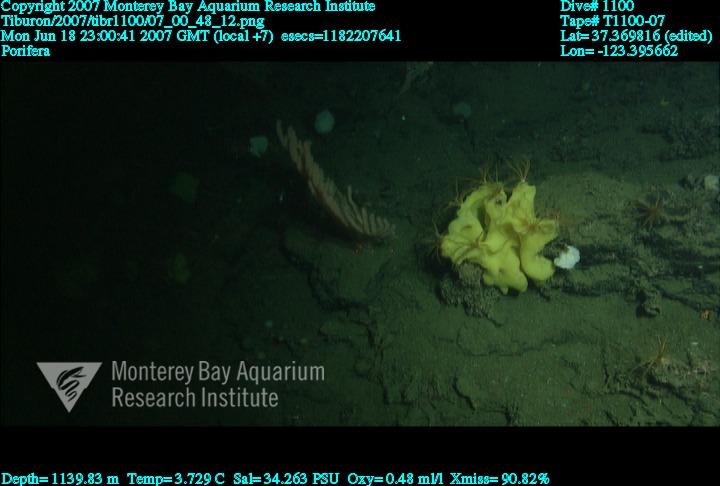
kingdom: Animalia
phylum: Porifera
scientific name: Porifera
